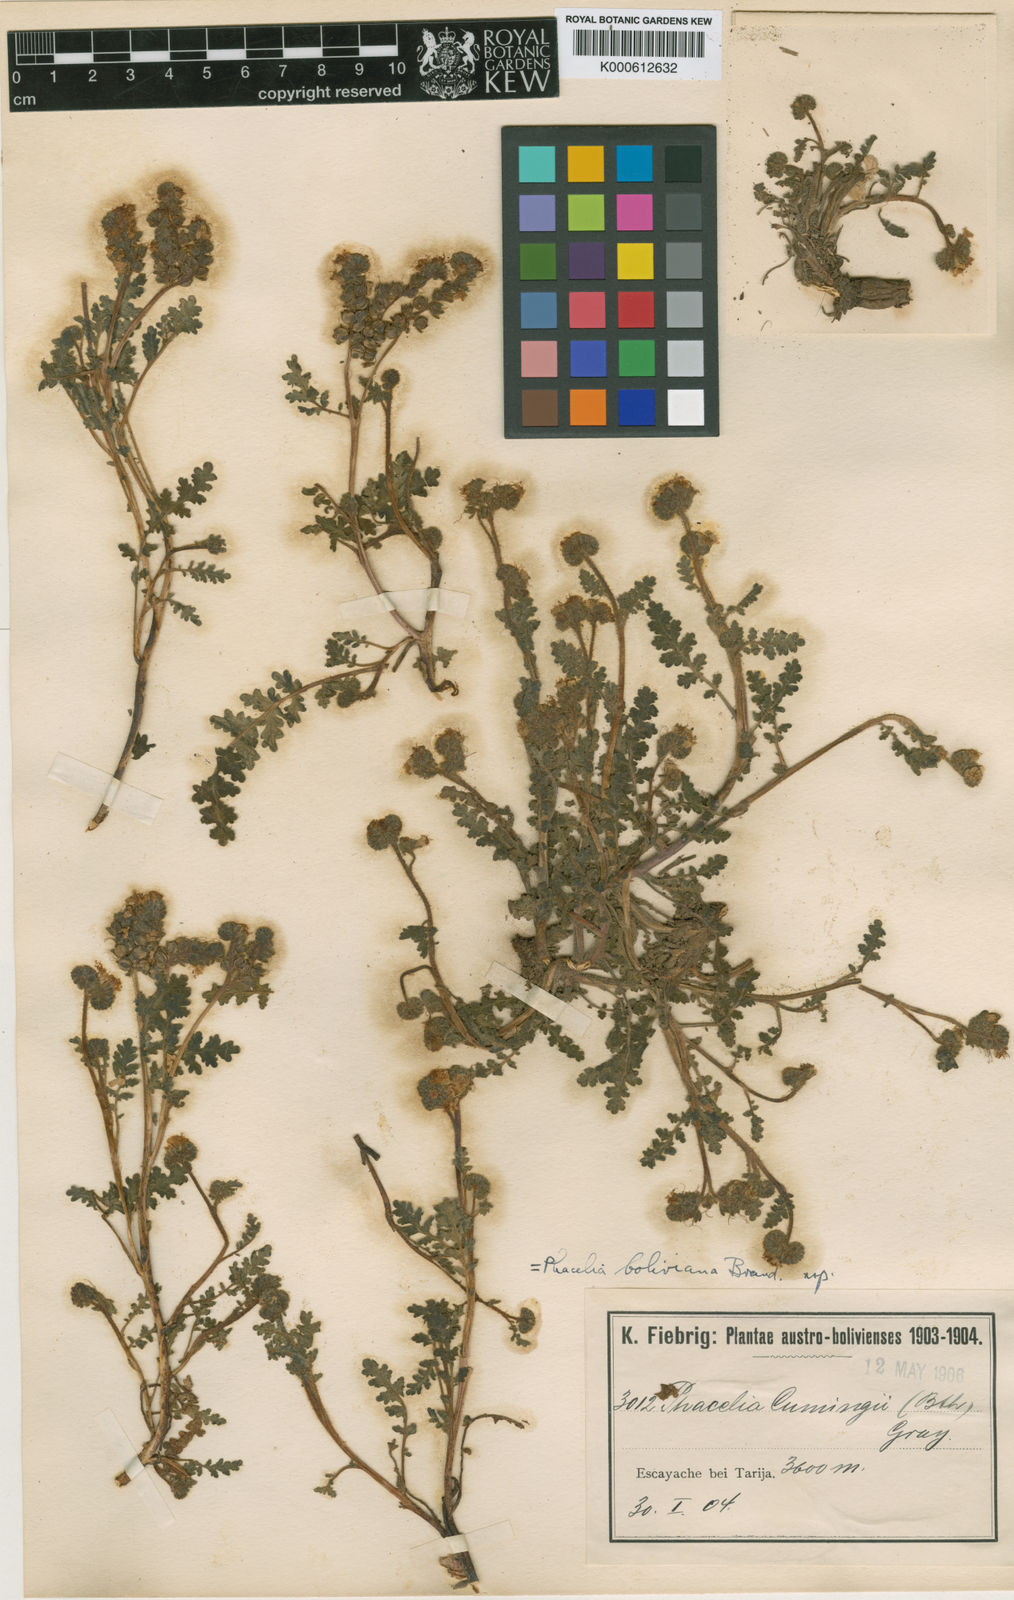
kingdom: Plantae
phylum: Tracheophyta
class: Magnoliopsida
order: Boraginales
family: Hydrophyllaceae
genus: Phacelia
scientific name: Phacelia pinnatifida
